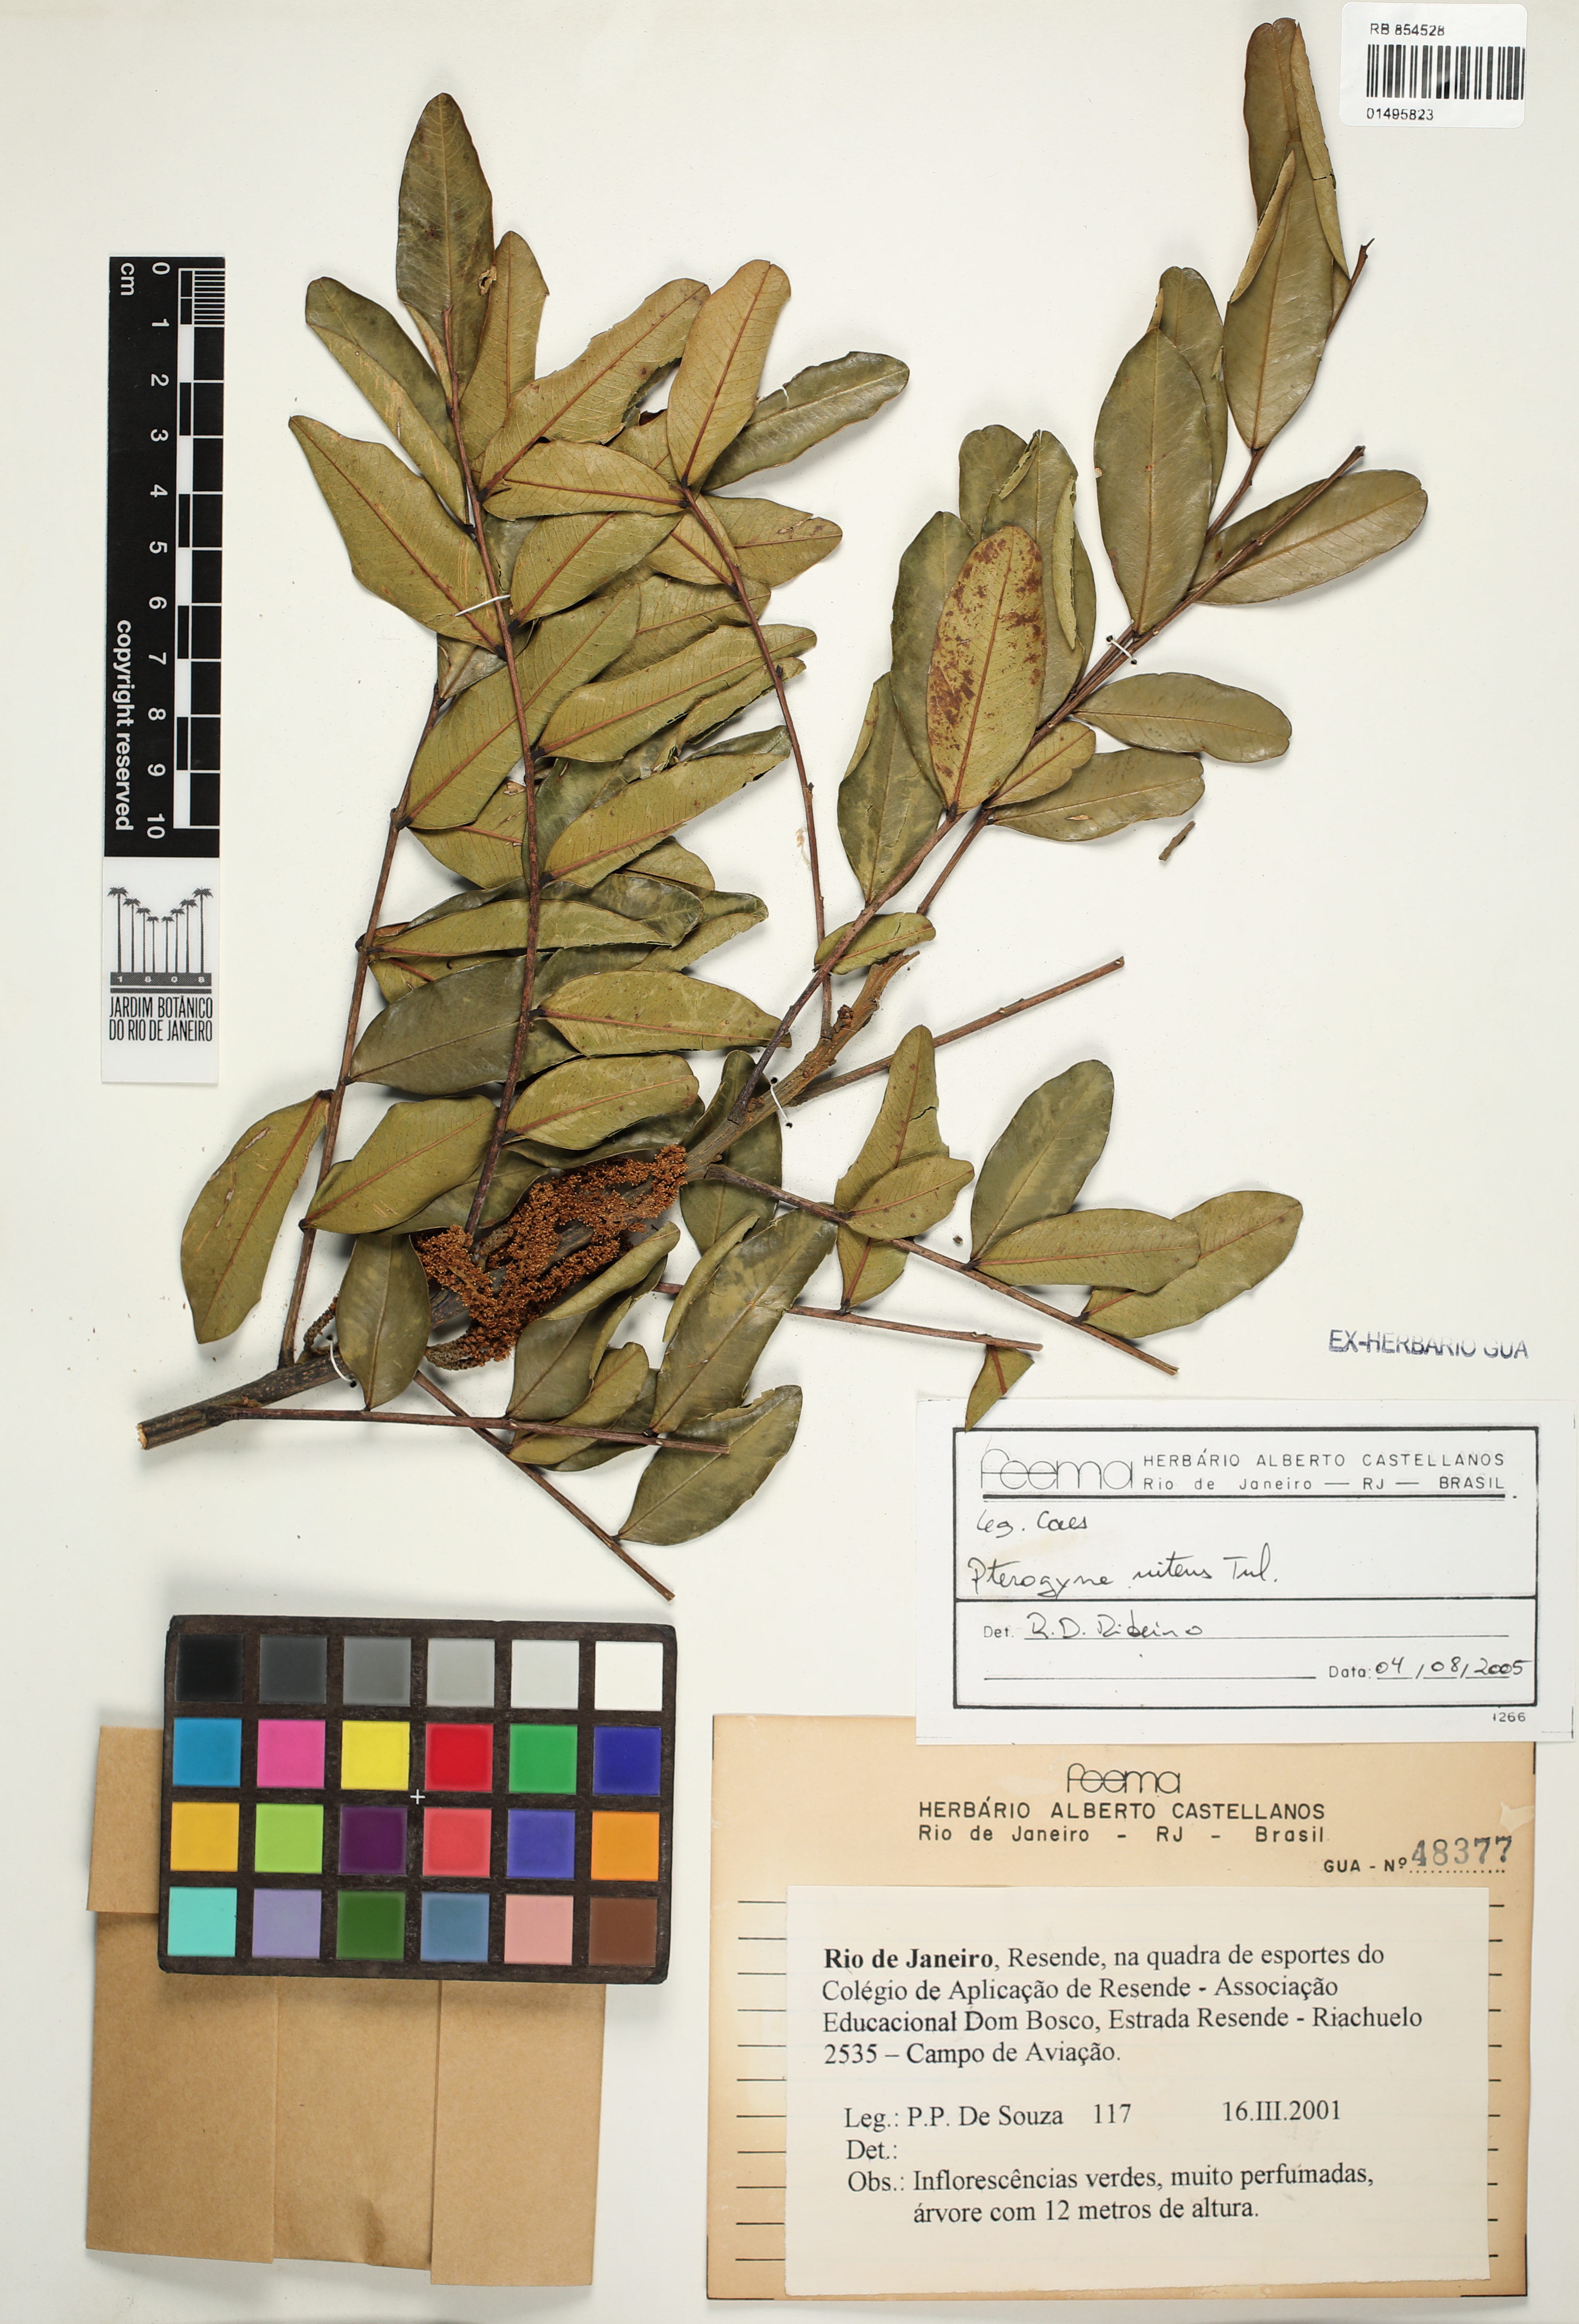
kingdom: Plantae
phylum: Tracheophyta
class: Magnoliopsida
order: Fabales
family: Fabaceae
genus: Pterogyne
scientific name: Pterogyne nitens
